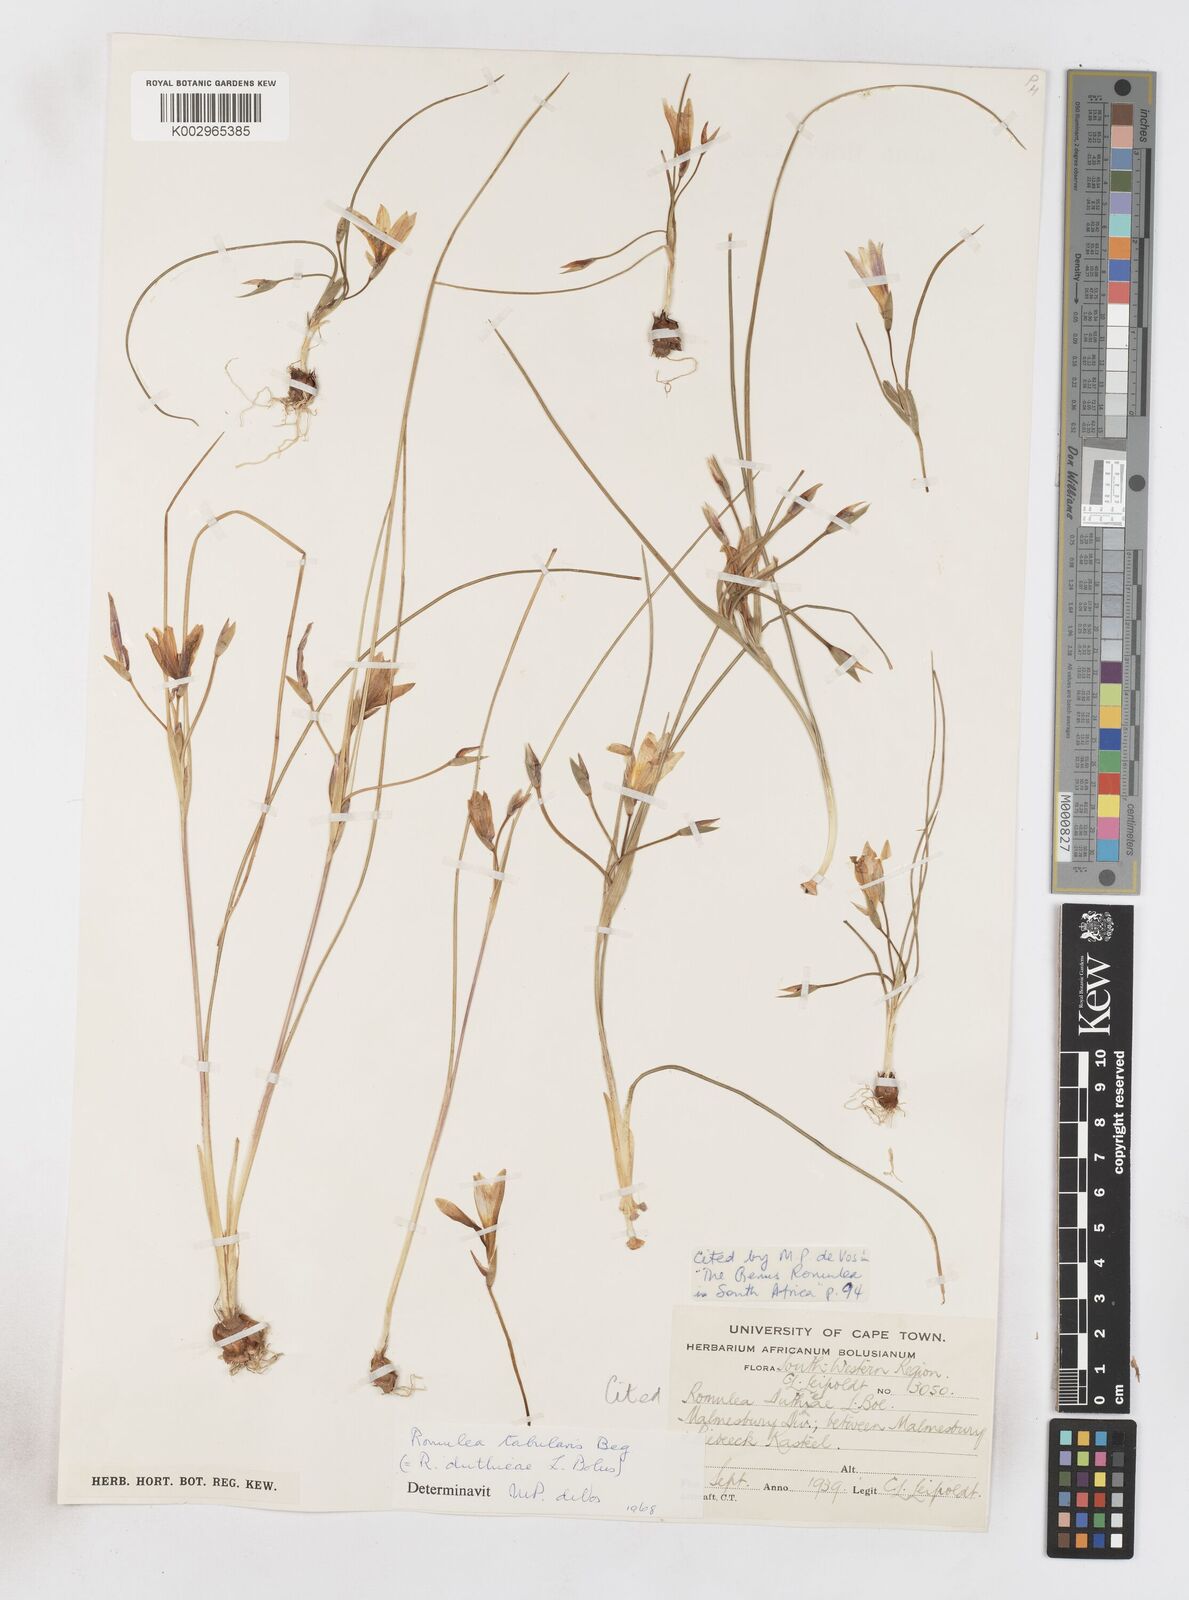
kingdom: Plantae
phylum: Tracheophyta
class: Liliopsida
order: Asparagales
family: Iridaceae
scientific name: Iridaceae
